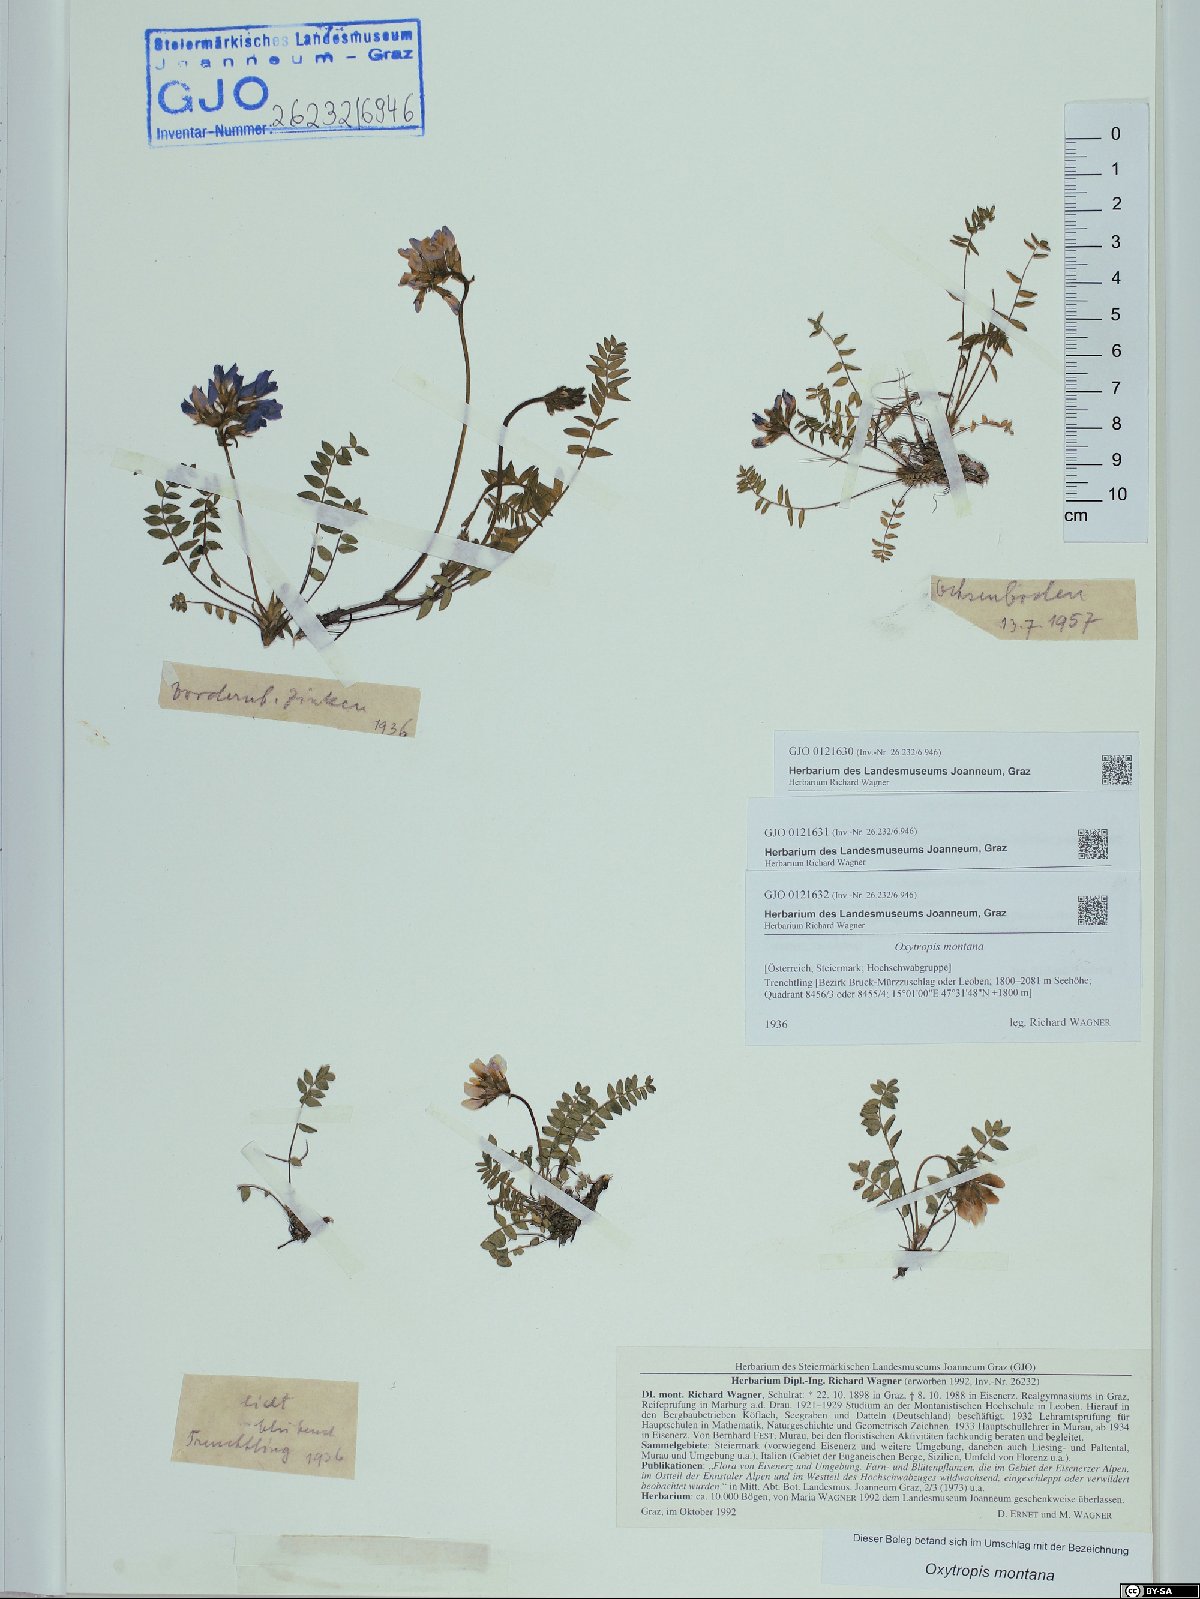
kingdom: Plantae
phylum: Tracheophyta
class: Magnoliopsida
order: Fabales
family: Fabaceae
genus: Oxytropis
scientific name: Oxytropis montana
